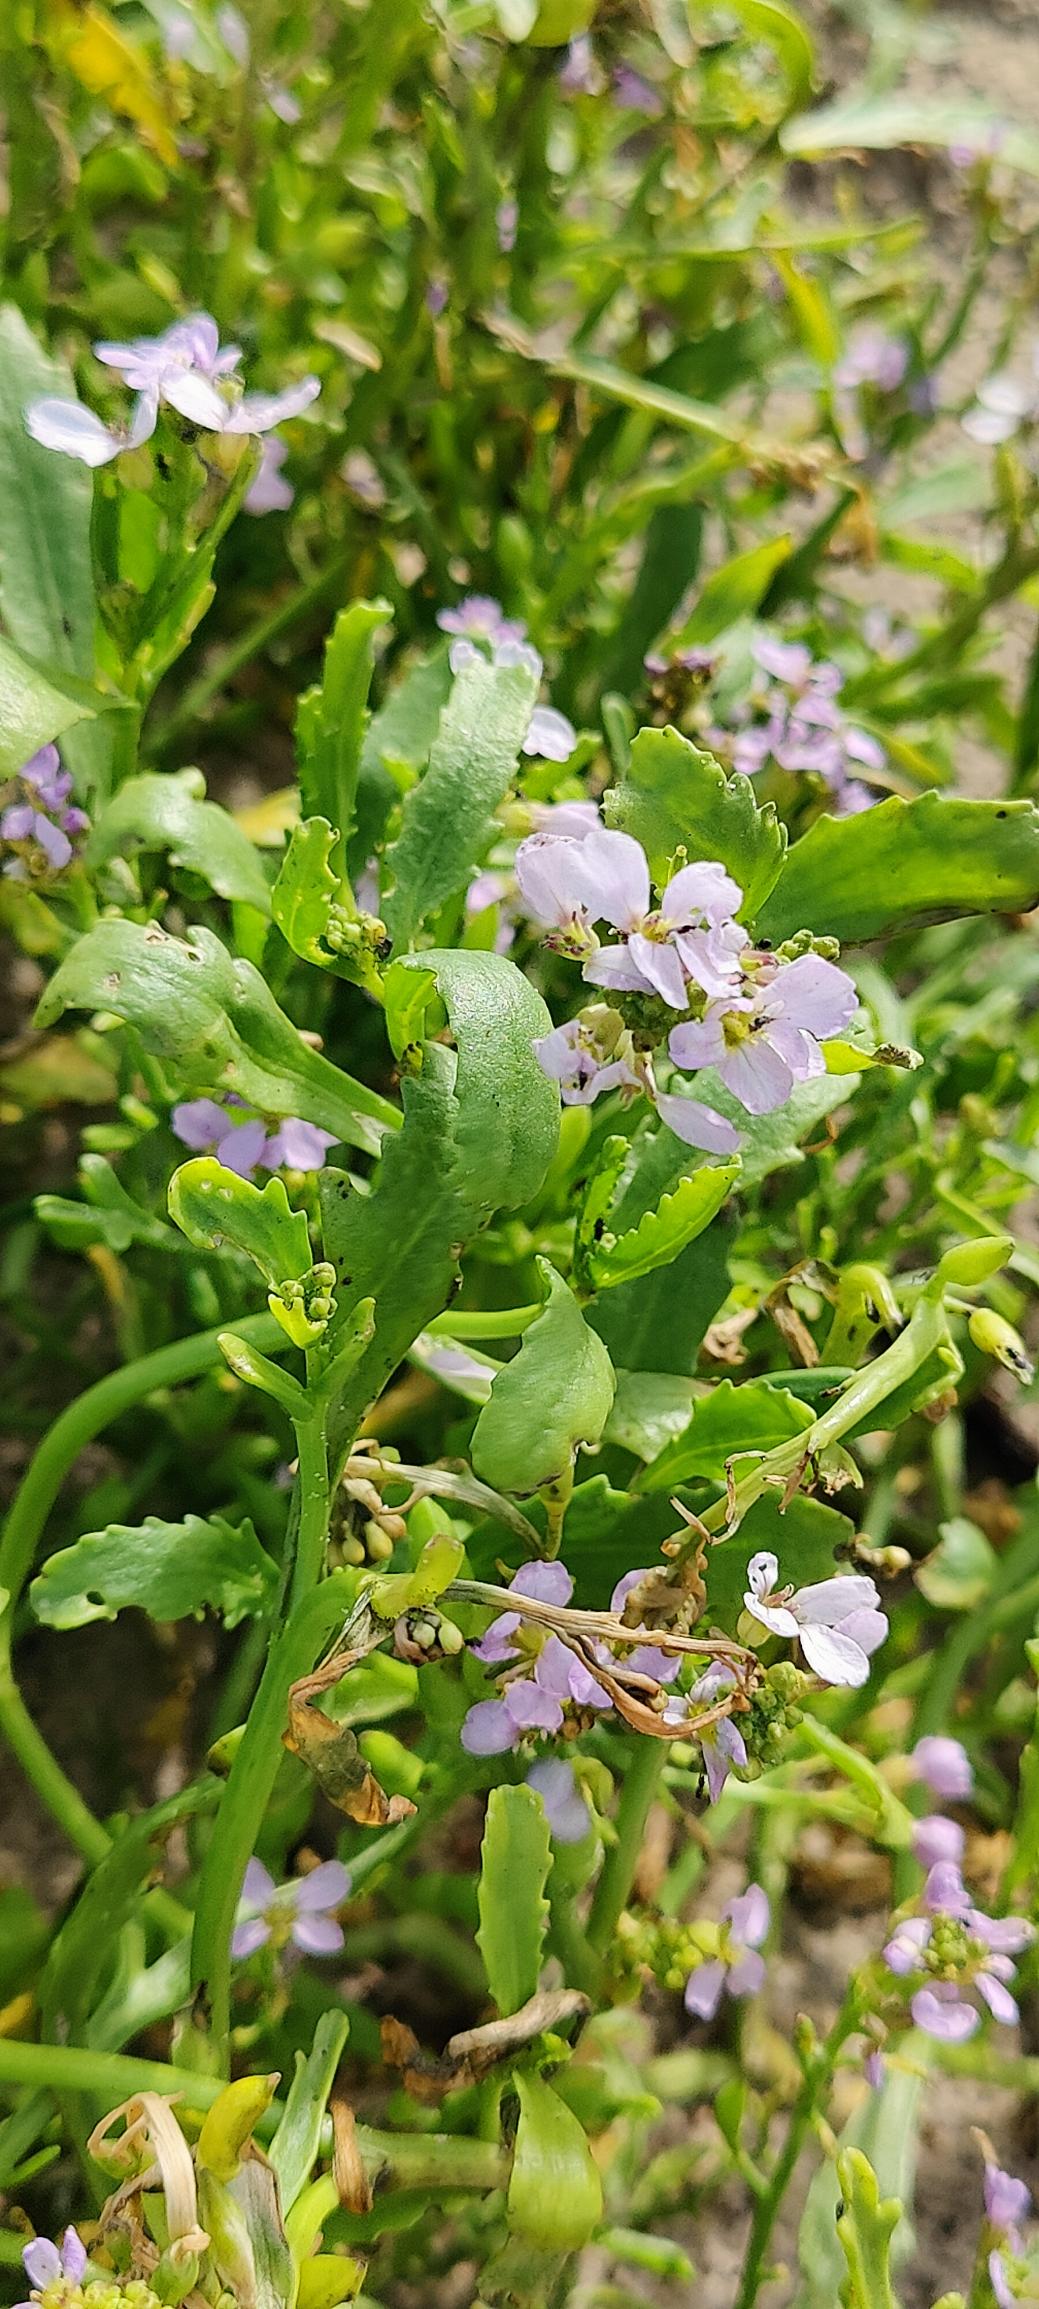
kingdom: Plantae
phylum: Tracheophyta
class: Magnoliopsida
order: Brassicales
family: Brassicaceae
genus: Cakile
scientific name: Cakile maritima
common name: Strandsennep
